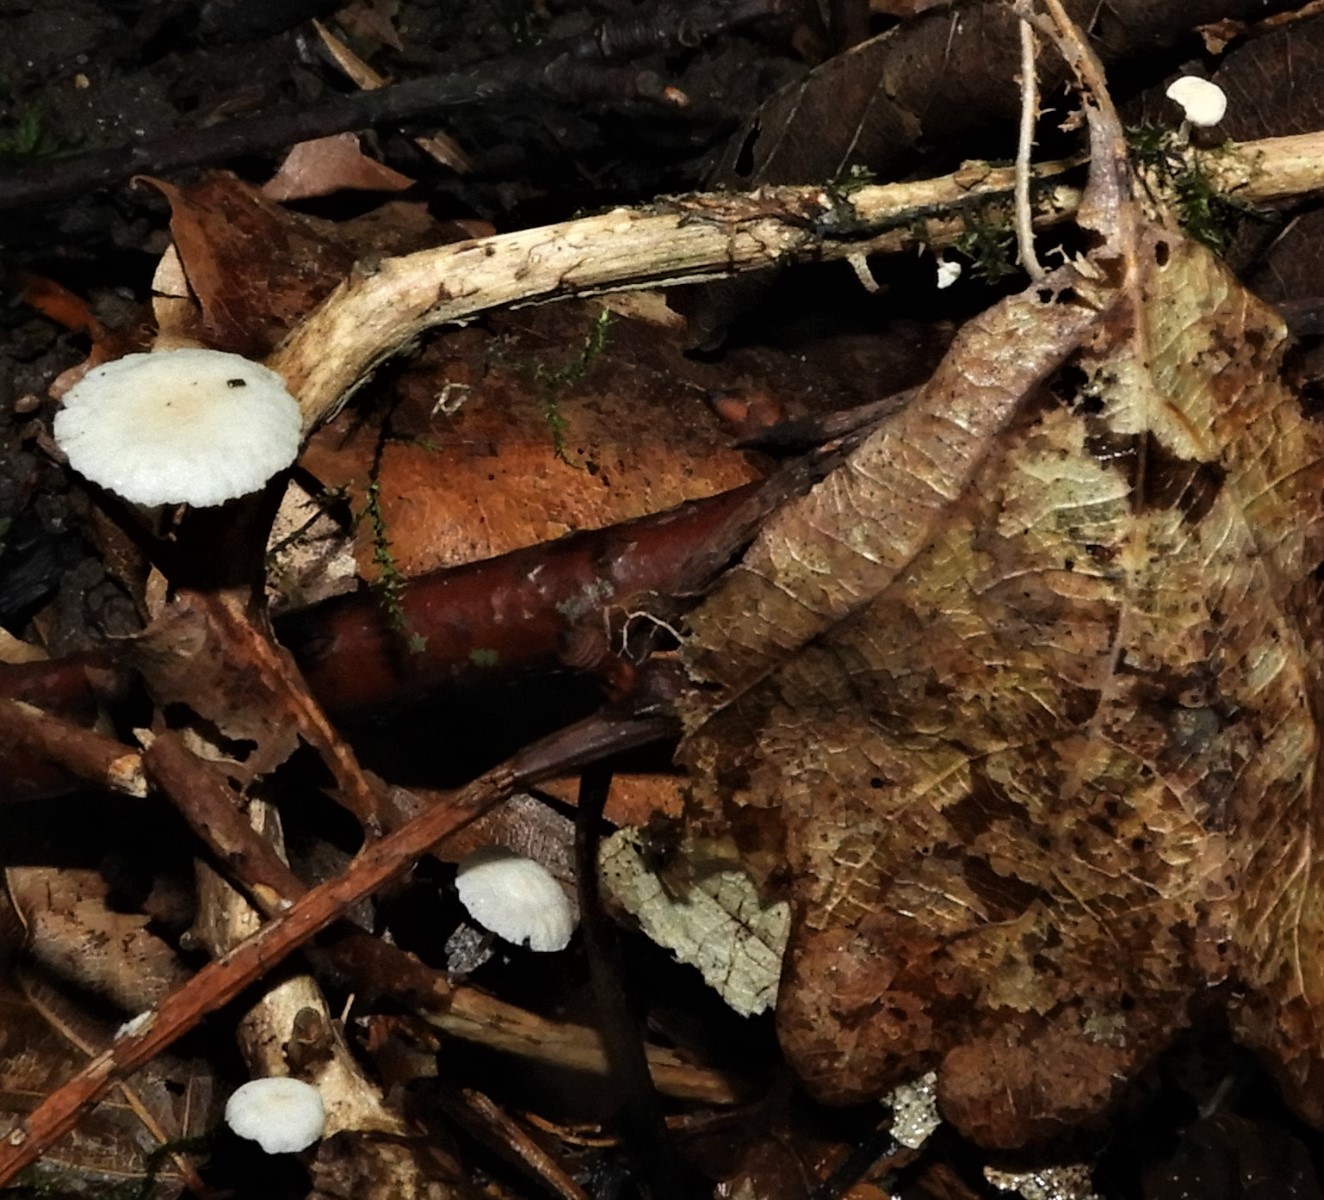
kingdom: Fungi
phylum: Basidiomycota
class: Agaricomycetes
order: Agaricales
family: Mycenaceae
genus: Mycena
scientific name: Mycena galericulata
